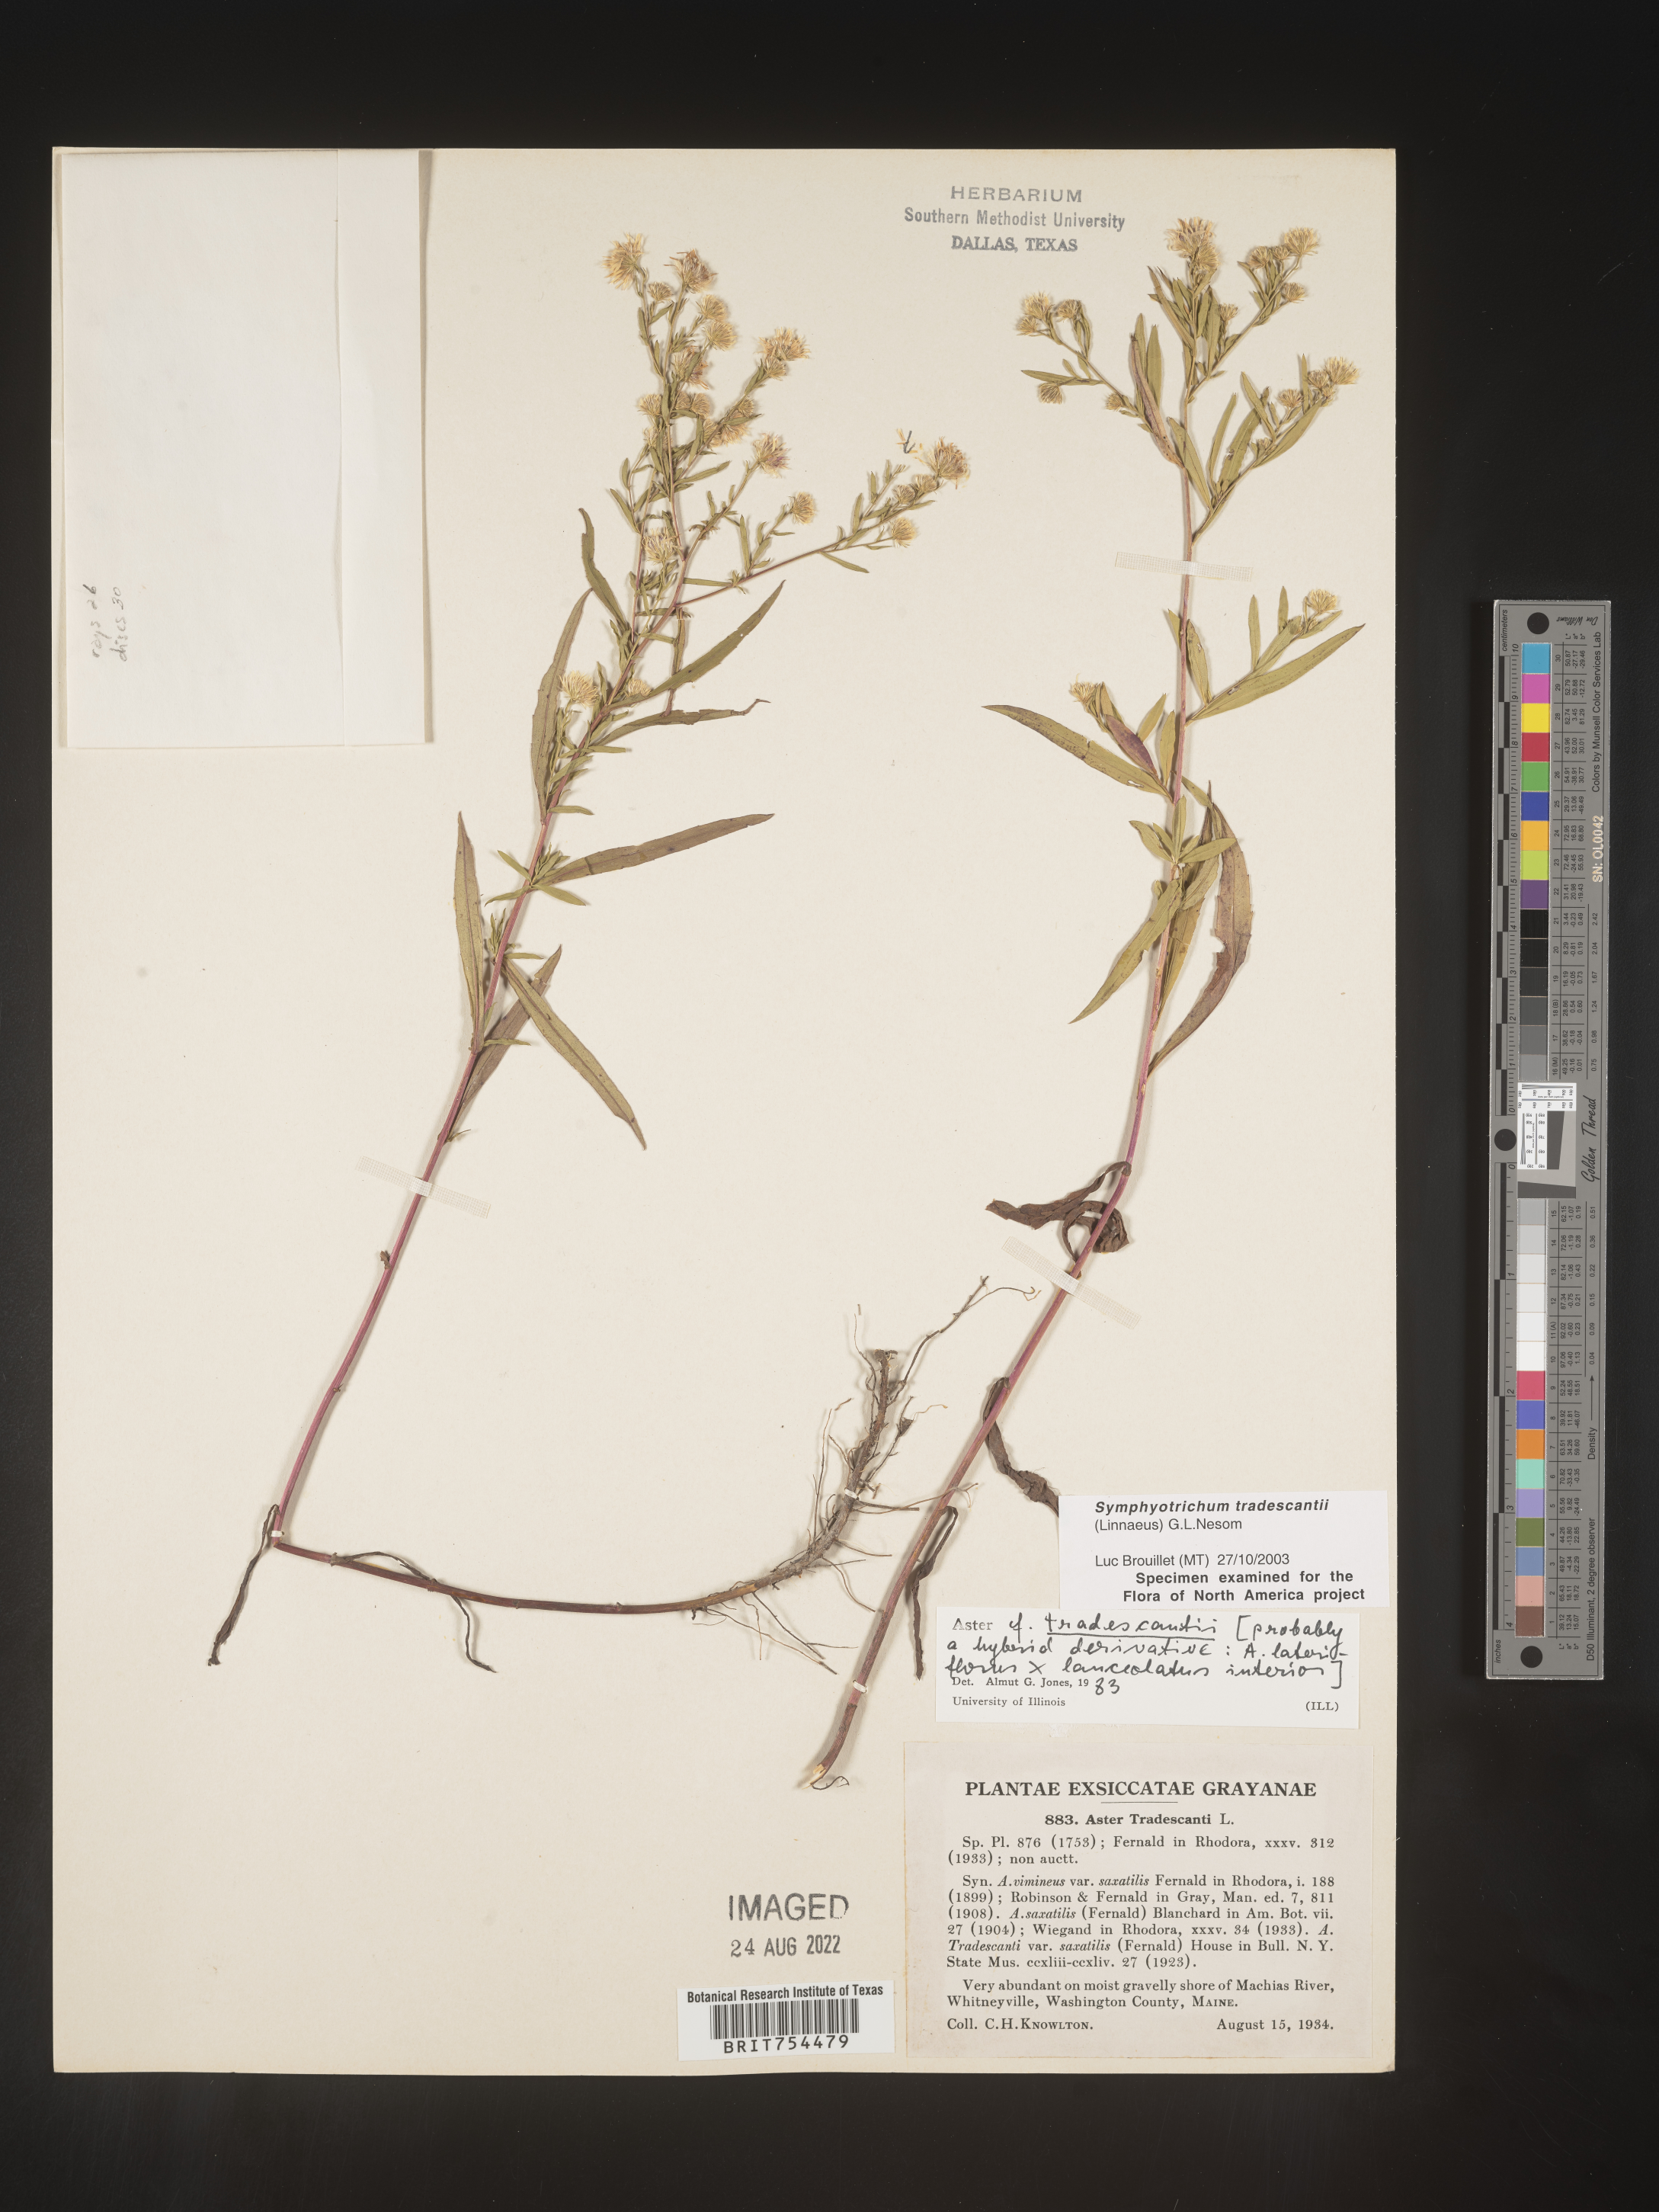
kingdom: Plantae
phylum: Tracheophyta
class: Magnoliopsida
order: Asterales
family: Asteraceae
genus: Symphyotrichum
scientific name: Symphyotrichum tradescantii
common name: Shore aster
